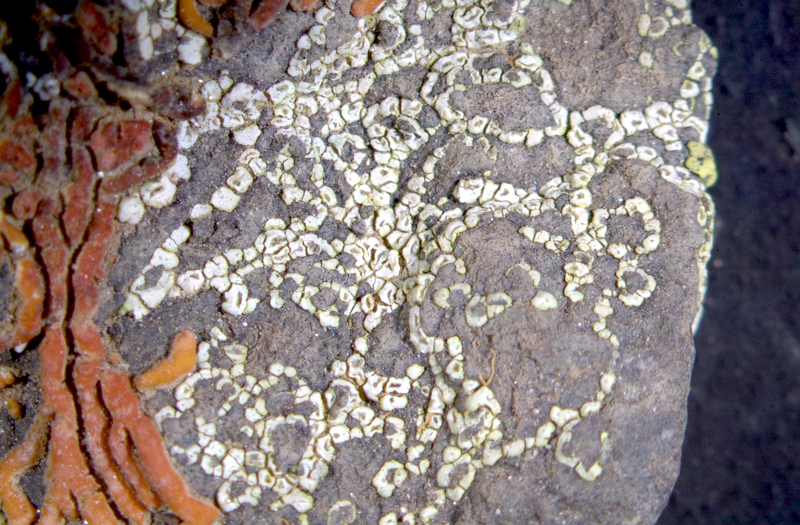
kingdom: Fungi
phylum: Ascomycota
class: Lecanoromycetes
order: Teloschistales
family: Teloschistaceae
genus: Stellarangia
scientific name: Stellarangia namibensis
